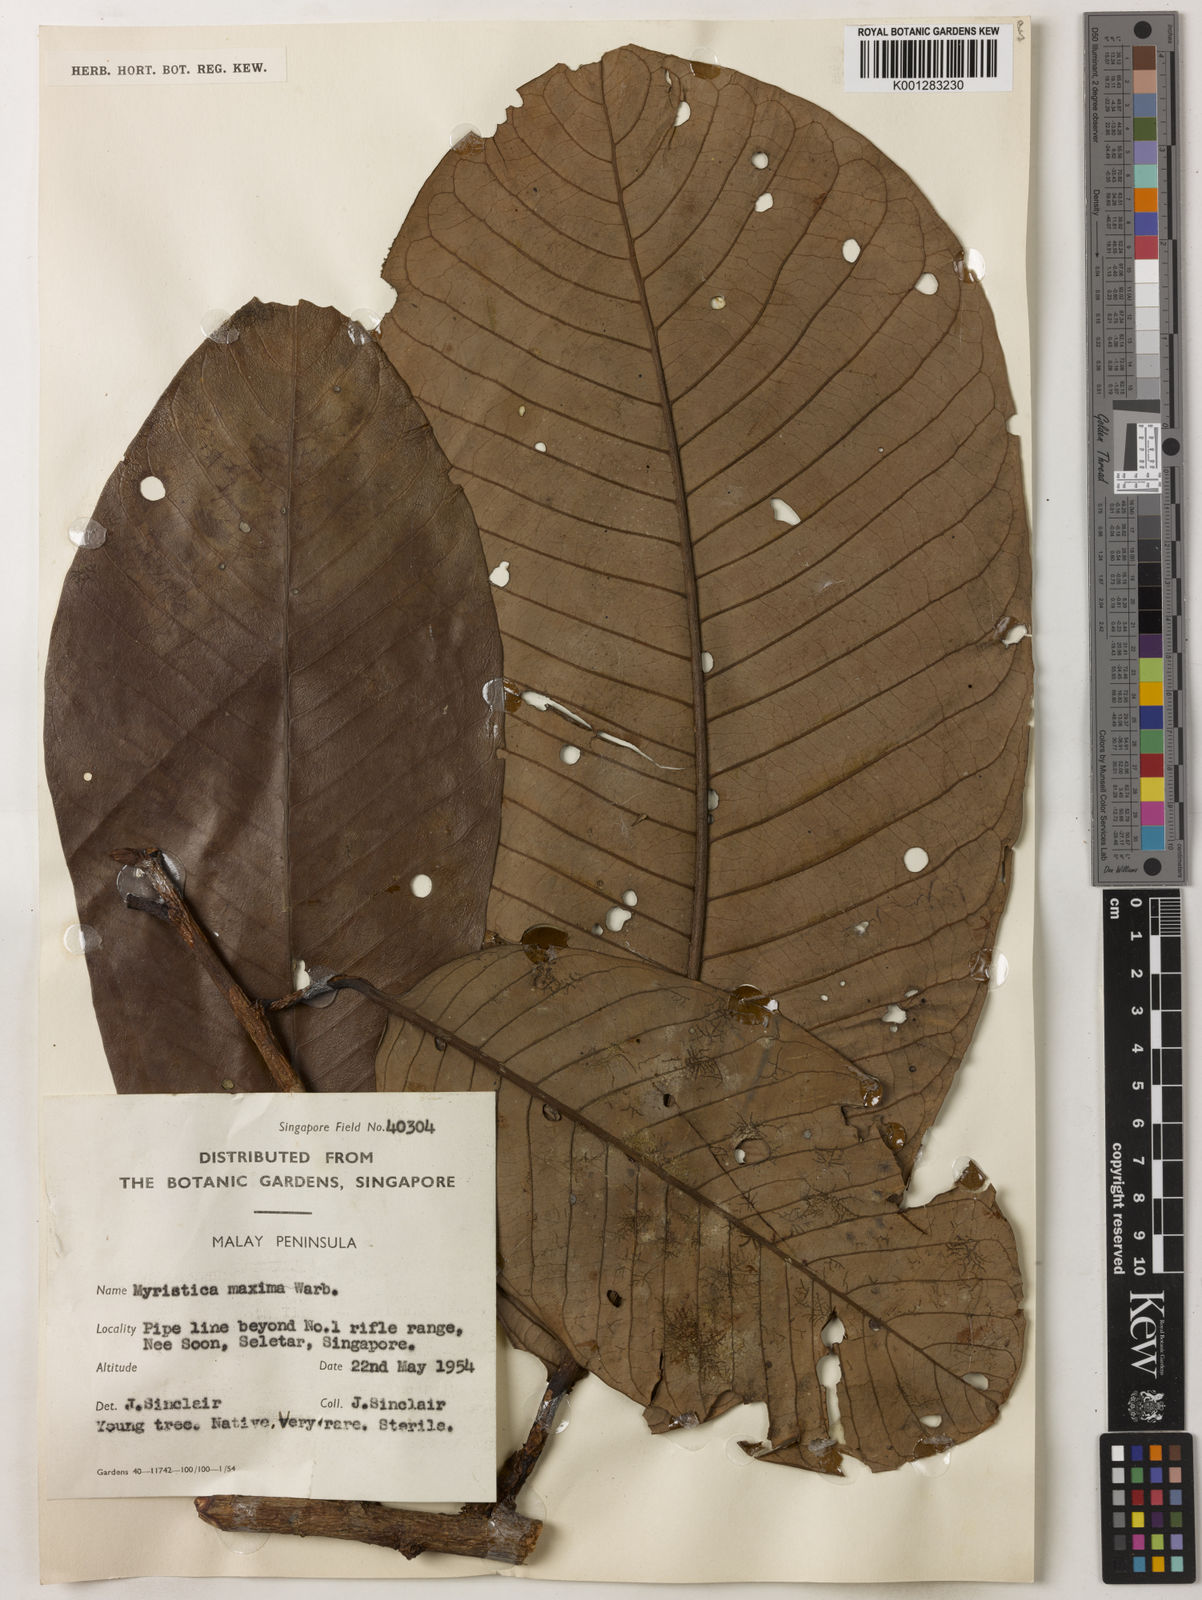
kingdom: Plantae
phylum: Tracheophyta
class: Magnoliopsida
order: Magnoliales
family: Myristicaceae
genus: Myristica
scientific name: Myristica maxima
